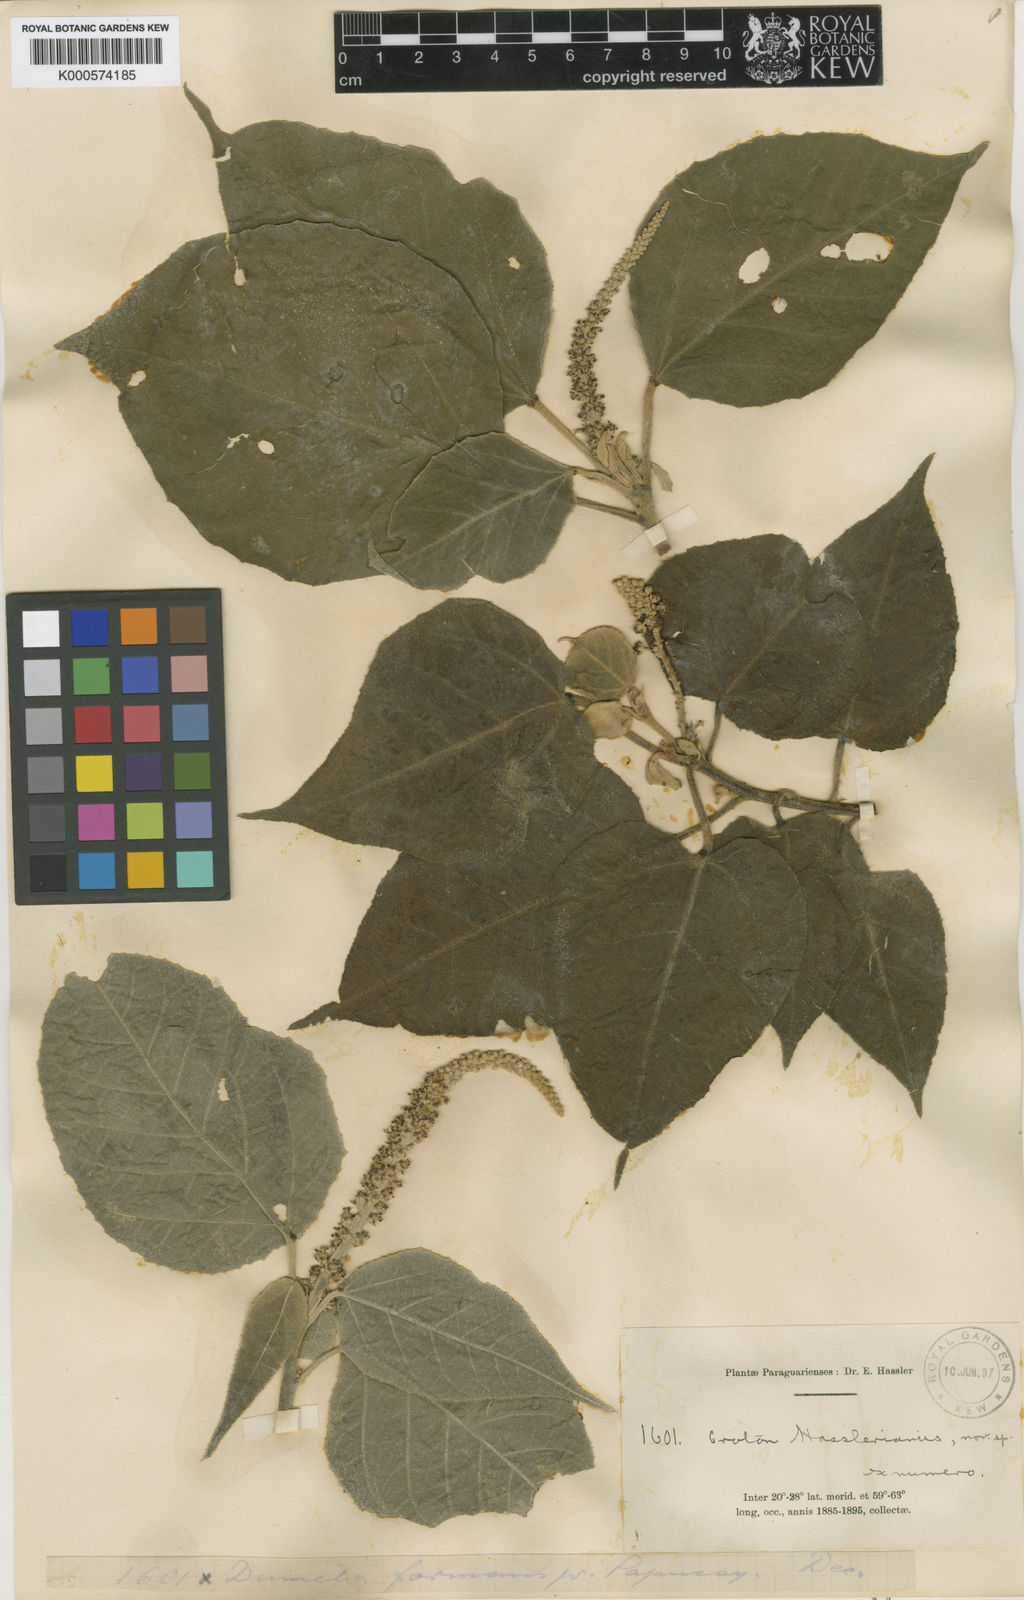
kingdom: Plantae
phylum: Tracheophyta
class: Magnoliopsida
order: Malpighiales
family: Euphorbiaceae
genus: Croton
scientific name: Croton hasslerianus
